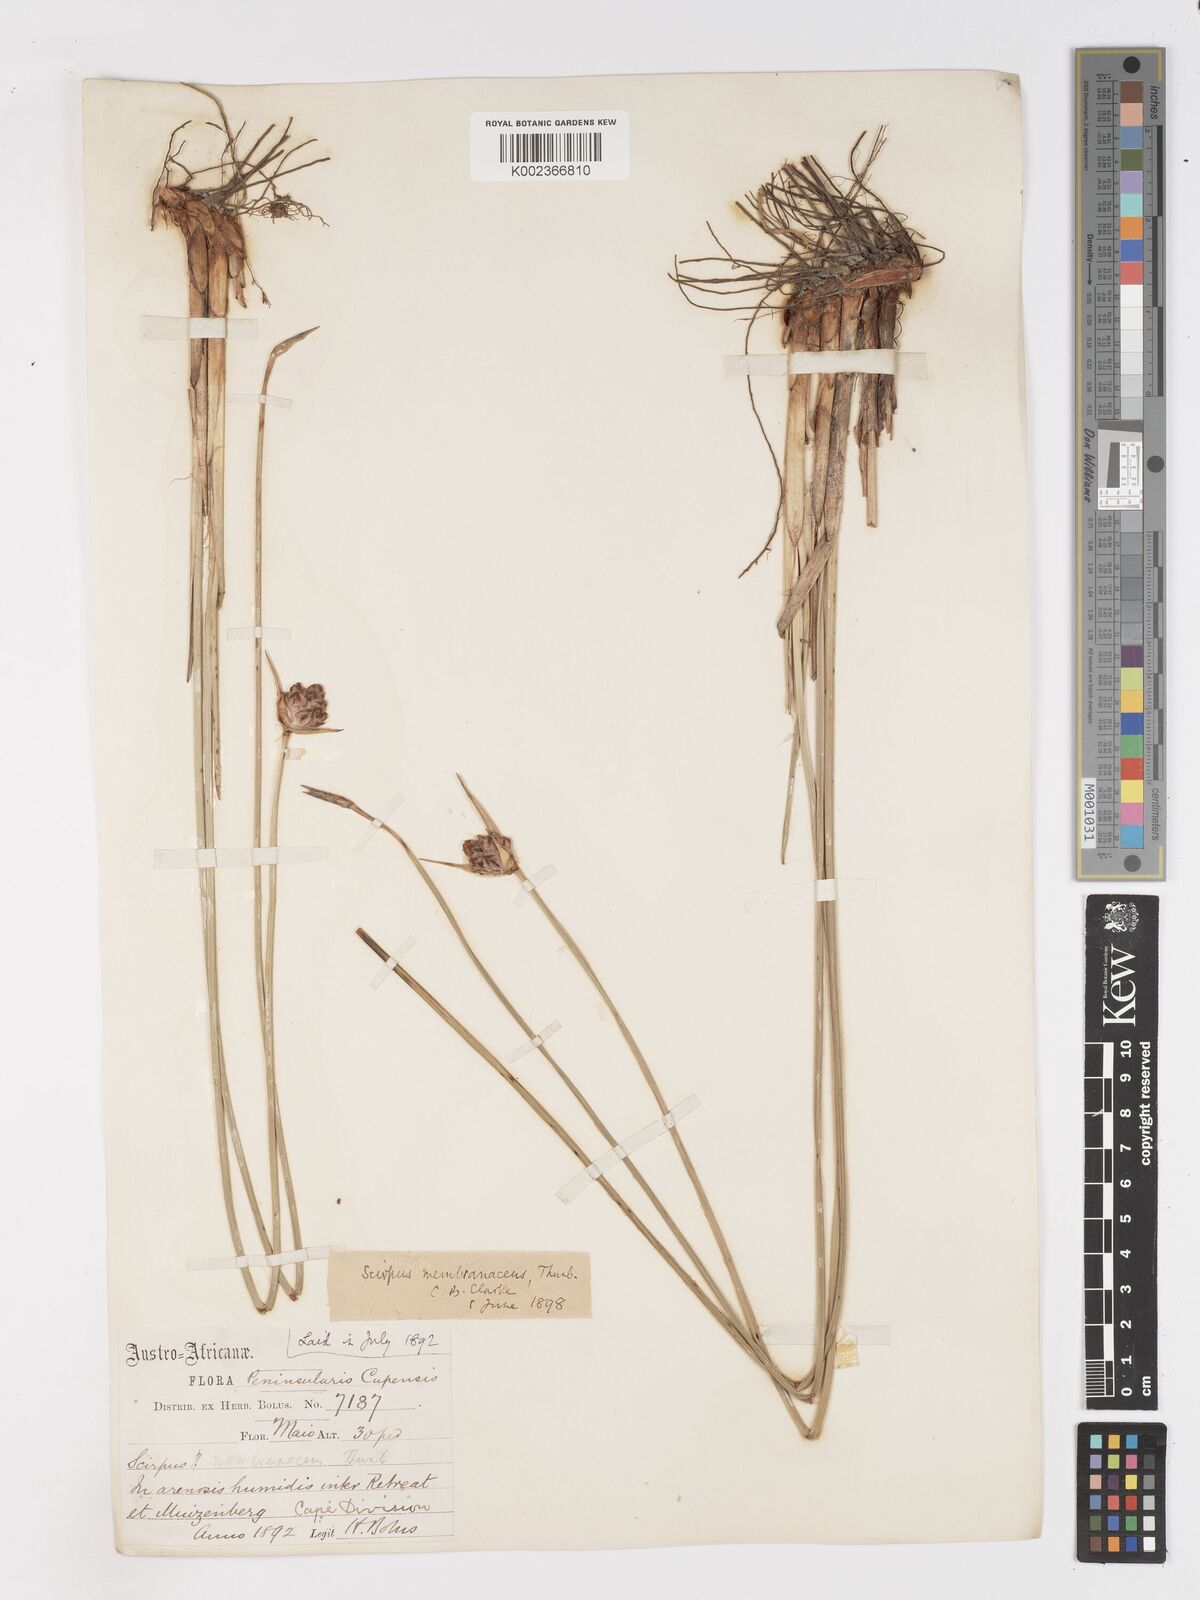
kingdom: Plantae
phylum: Tracheophyta
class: Liliopsida
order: Poales
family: Cyperaceae
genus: Hellmuthia
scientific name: Hellmuthia membranacea
